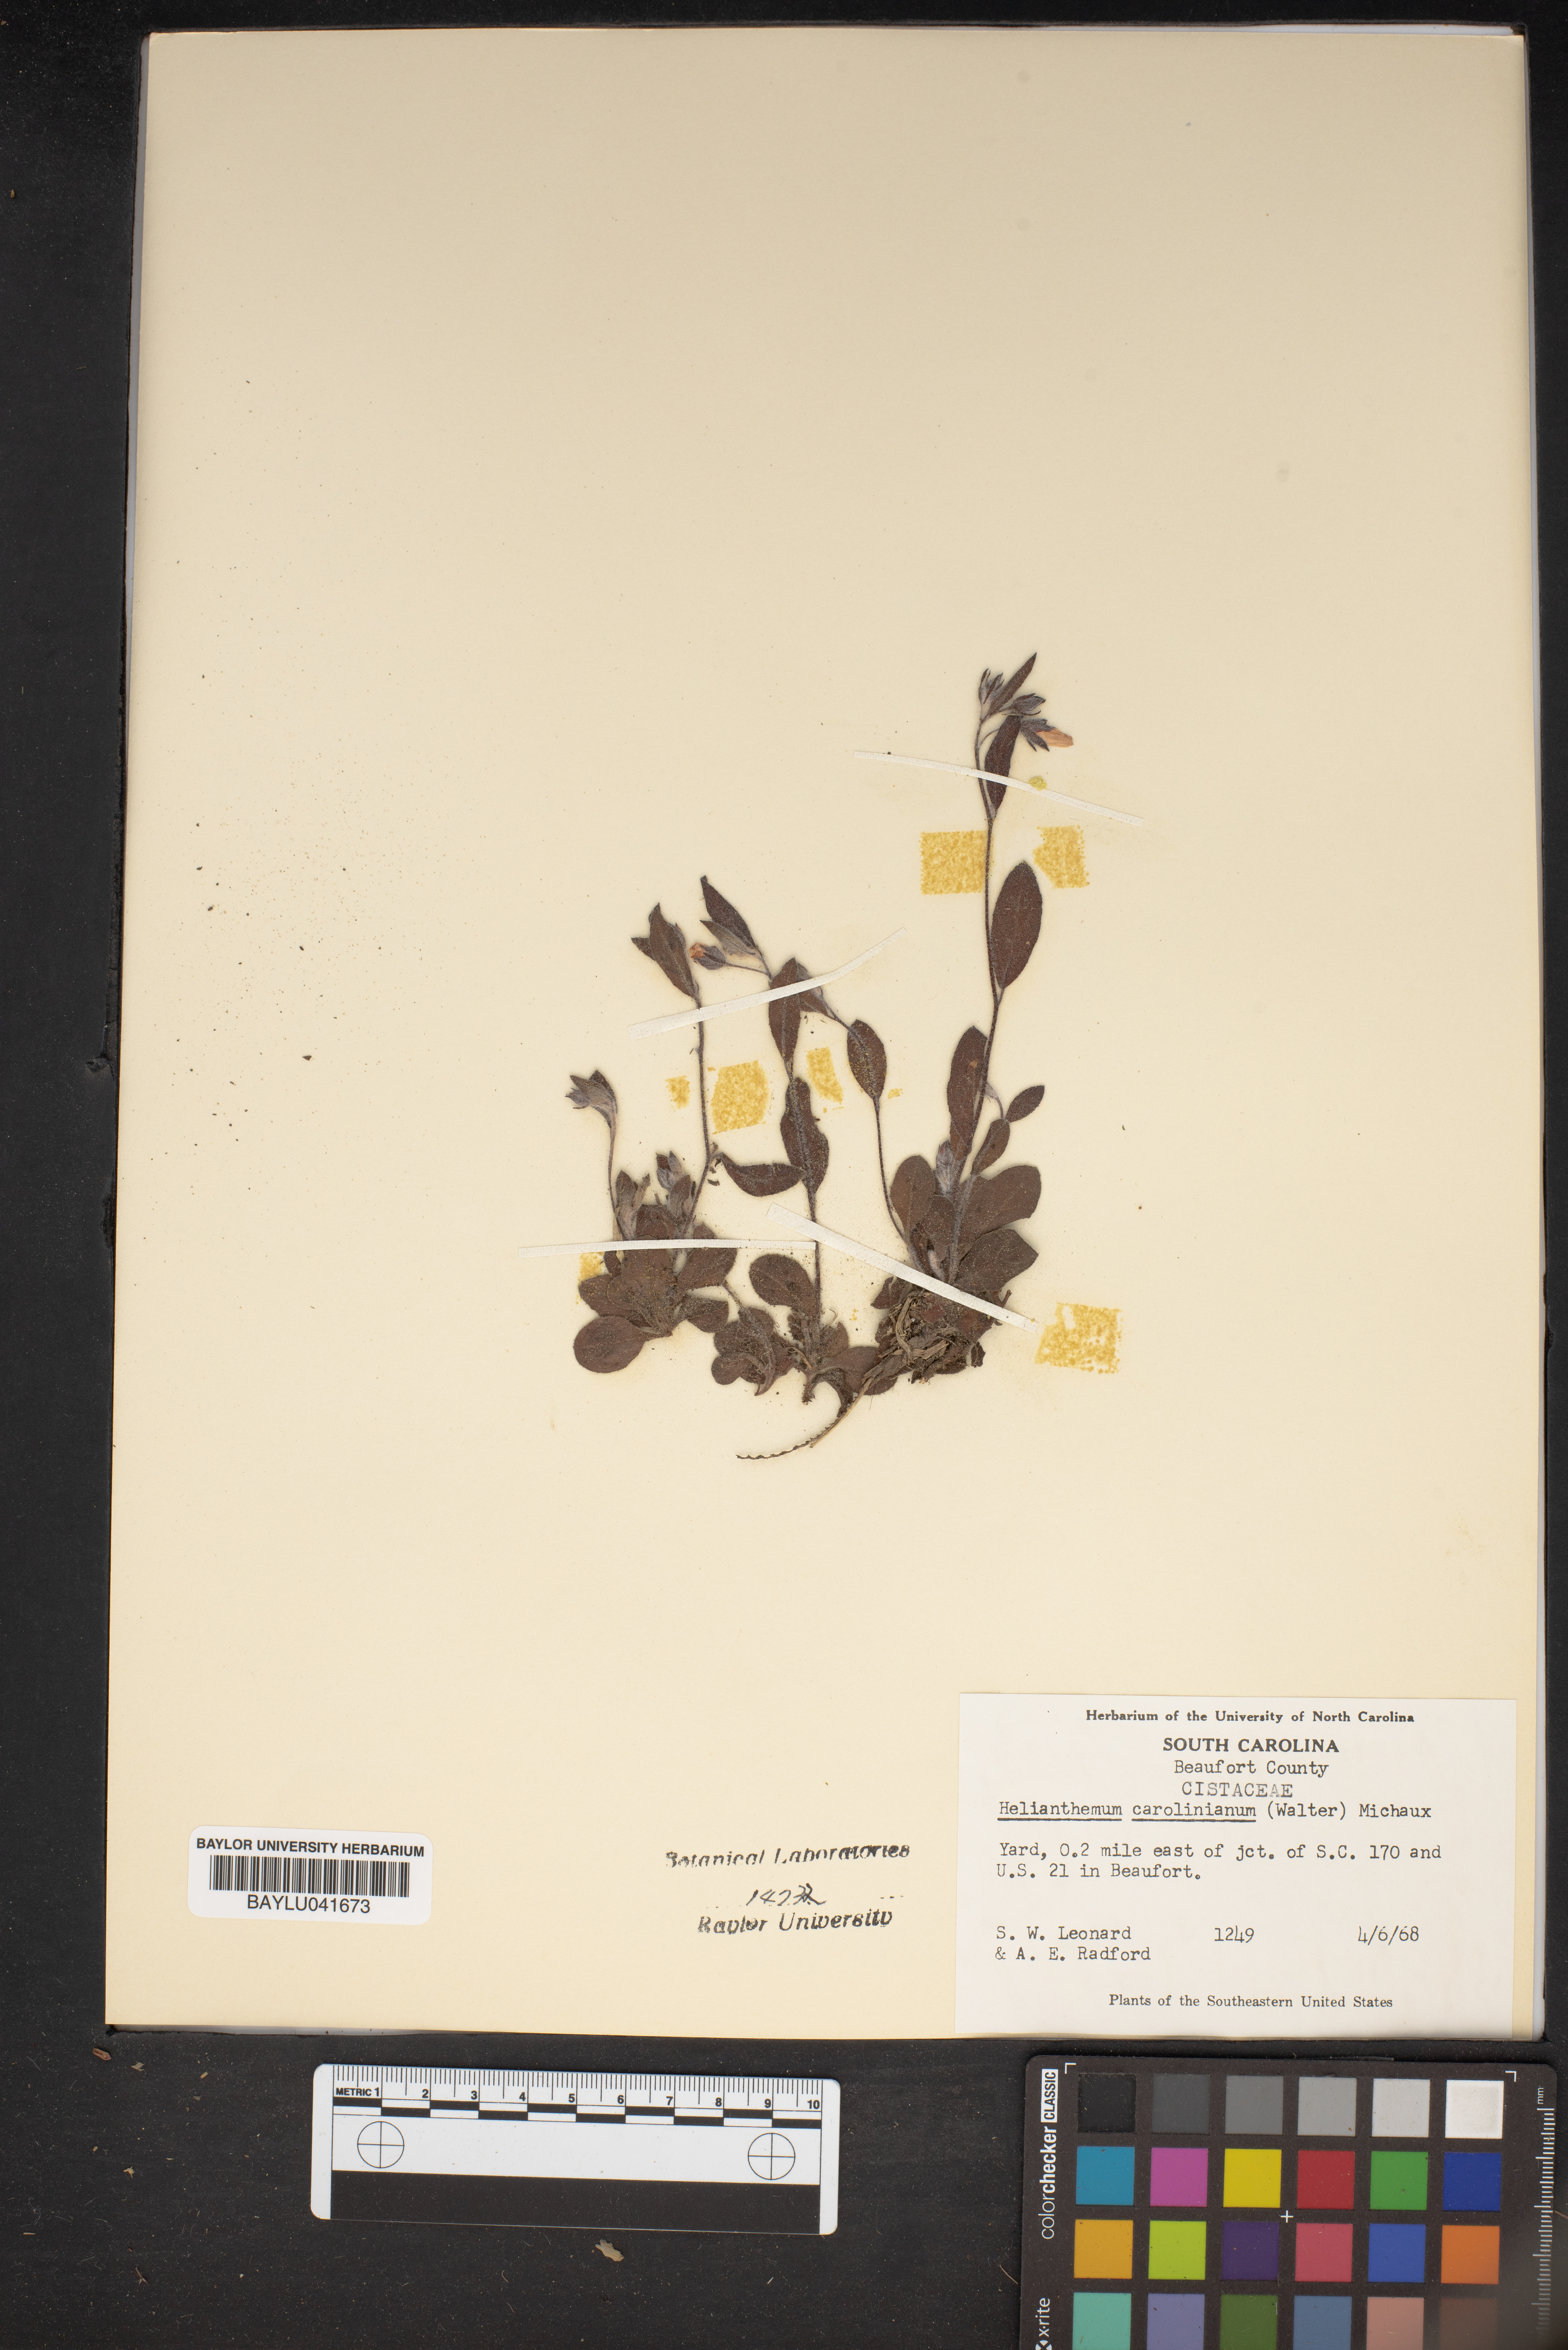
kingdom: Plantae
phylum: Tracheophyta
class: Magnoliopsida
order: Malvales
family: Cistaceae
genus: Crocanthemum
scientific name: Crocanthemum carolinianum
